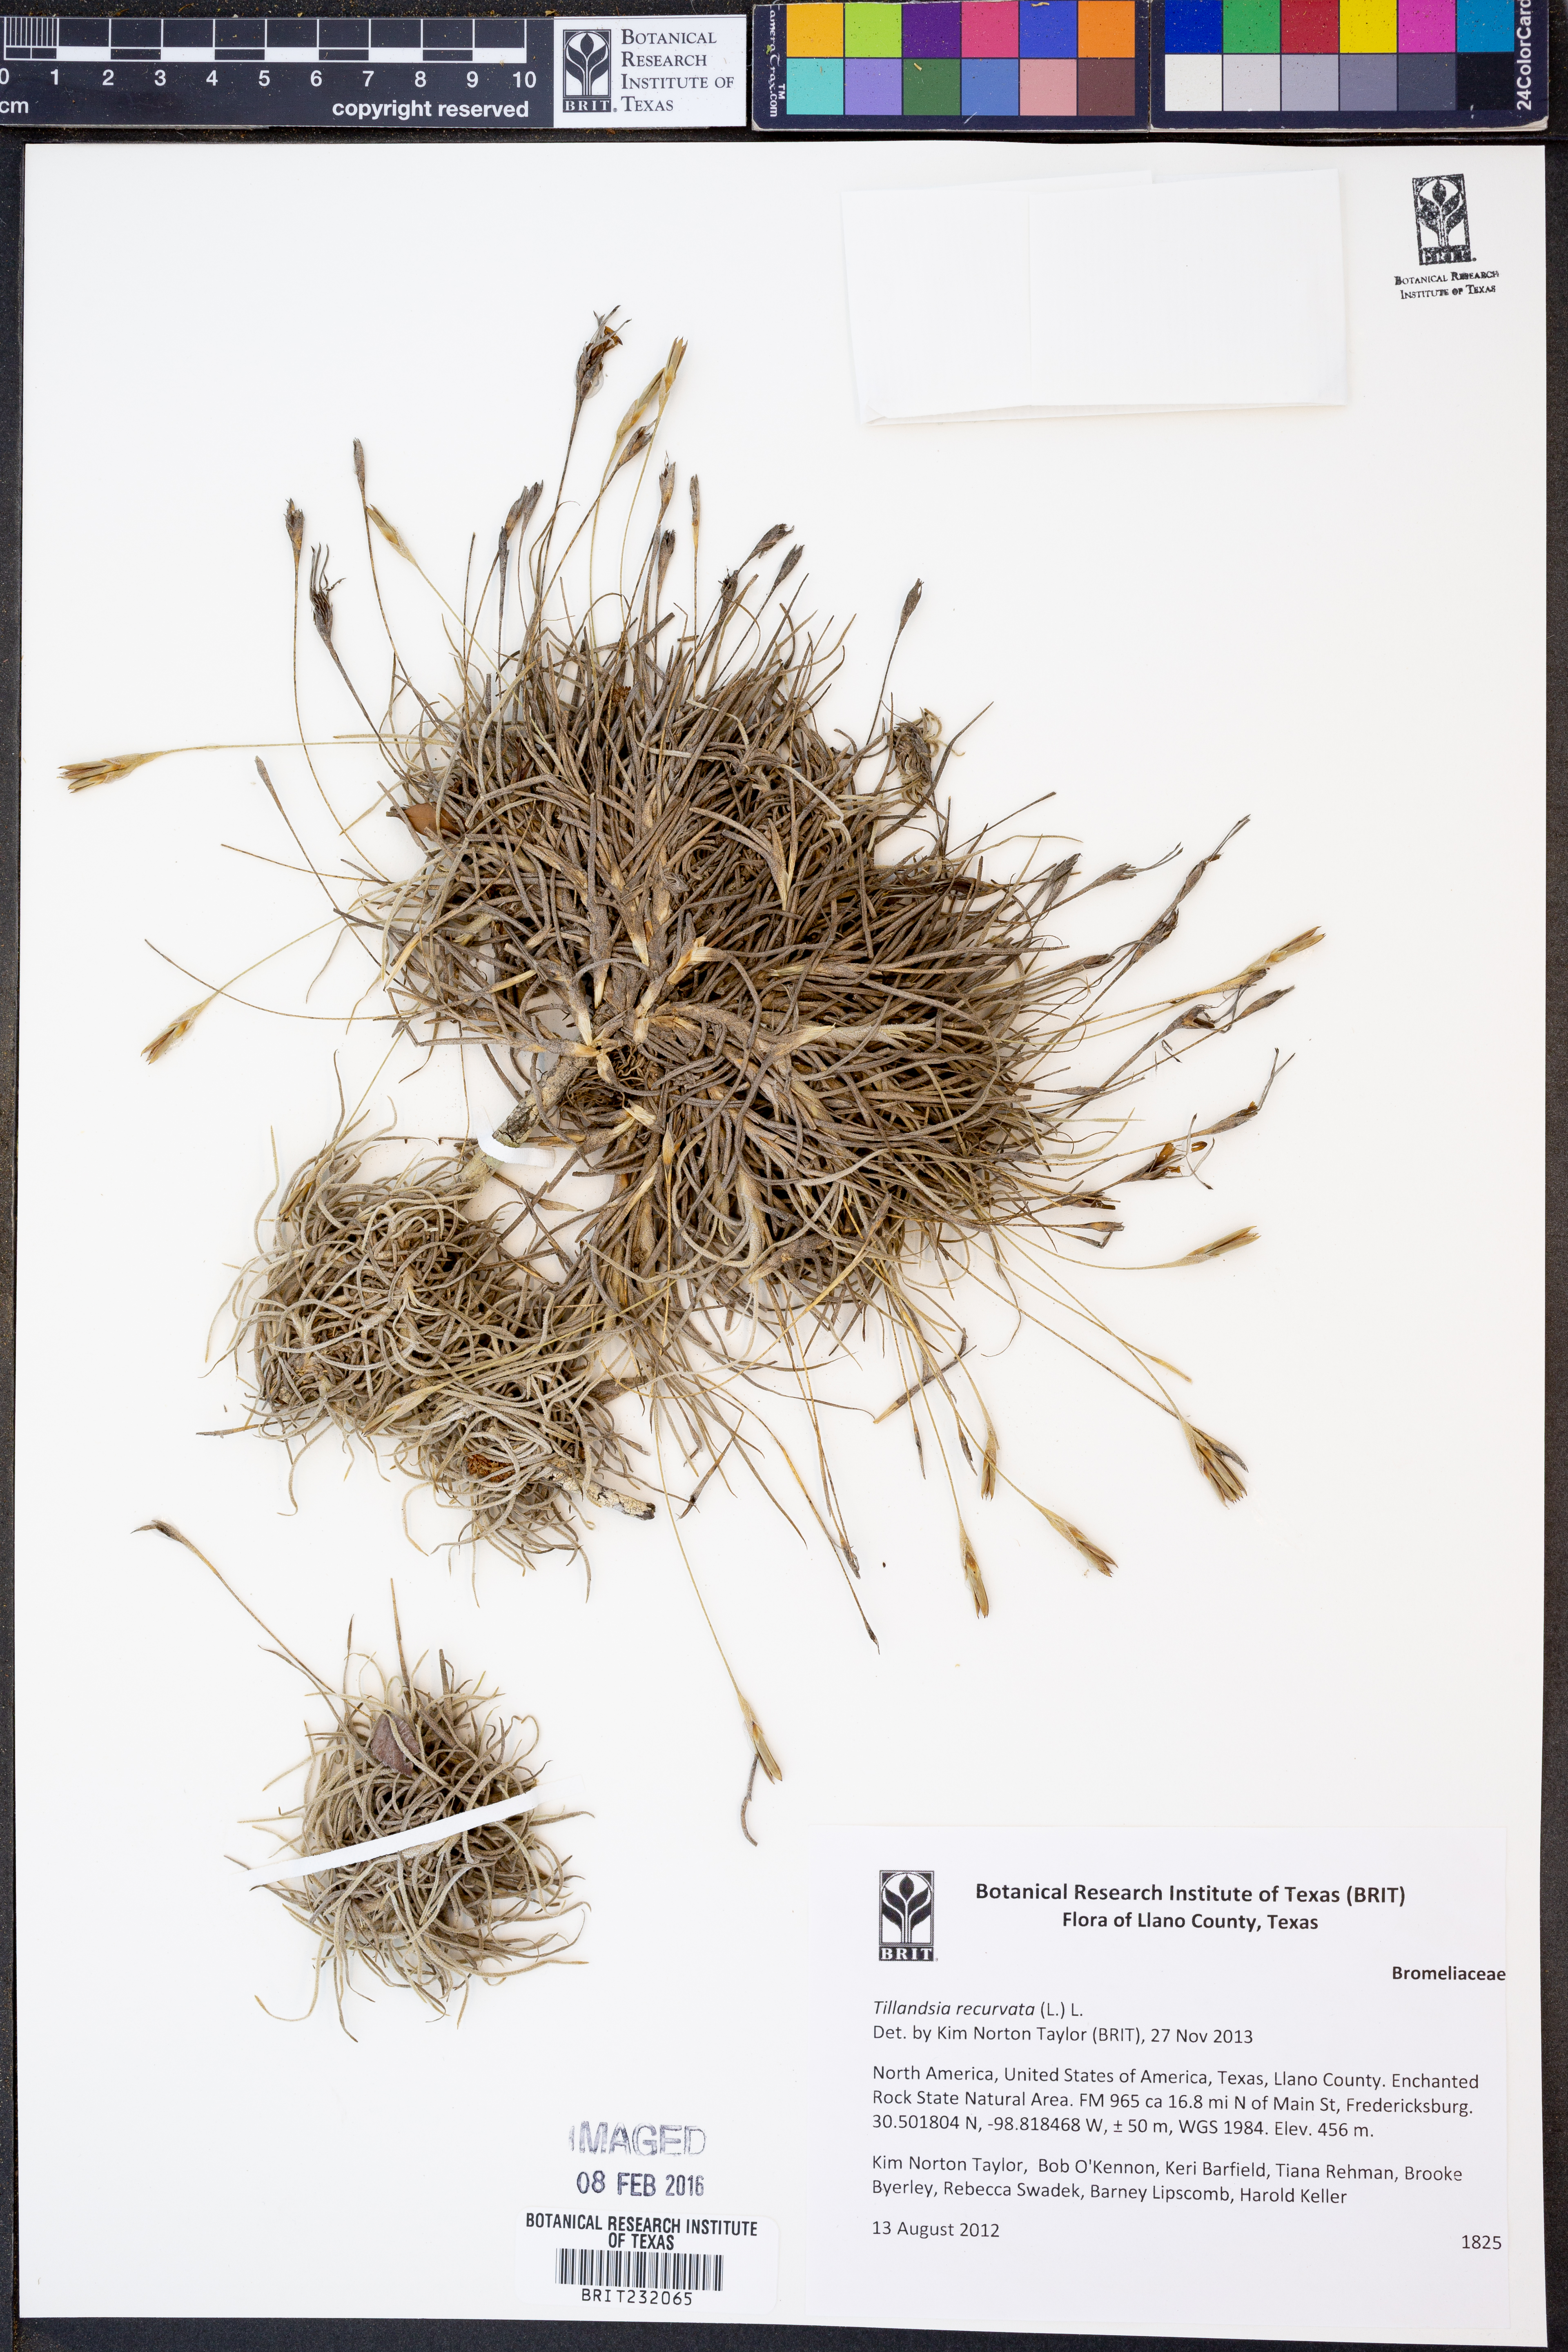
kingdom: Plantae
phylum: Tracheophyta
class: Liliopsida
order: Poales
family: Bromeliaceae
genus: Tillandsia
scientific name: Tillandsia recurvata
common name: Small ballmoss
